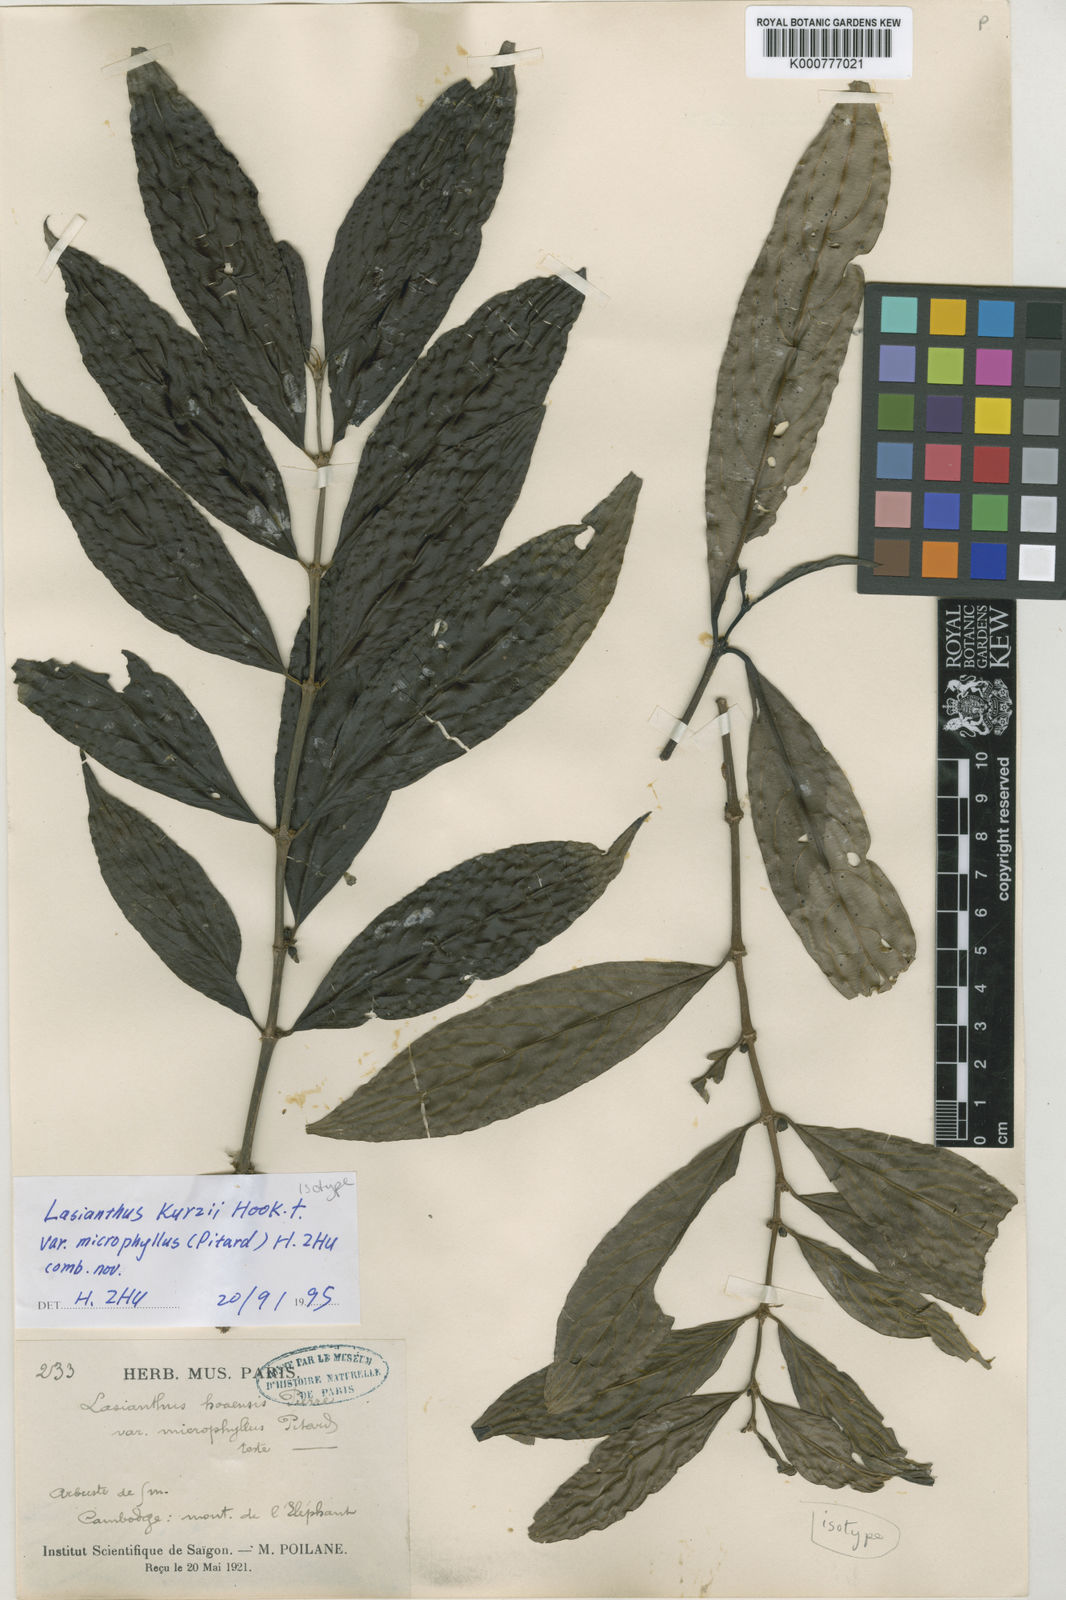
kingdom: Plantae
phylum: Tracheophyta
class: Magnoliopsida
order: Gentianales
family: Rubiaceae
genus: Lasianthus
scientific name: Lasianthus chrysoneurus
